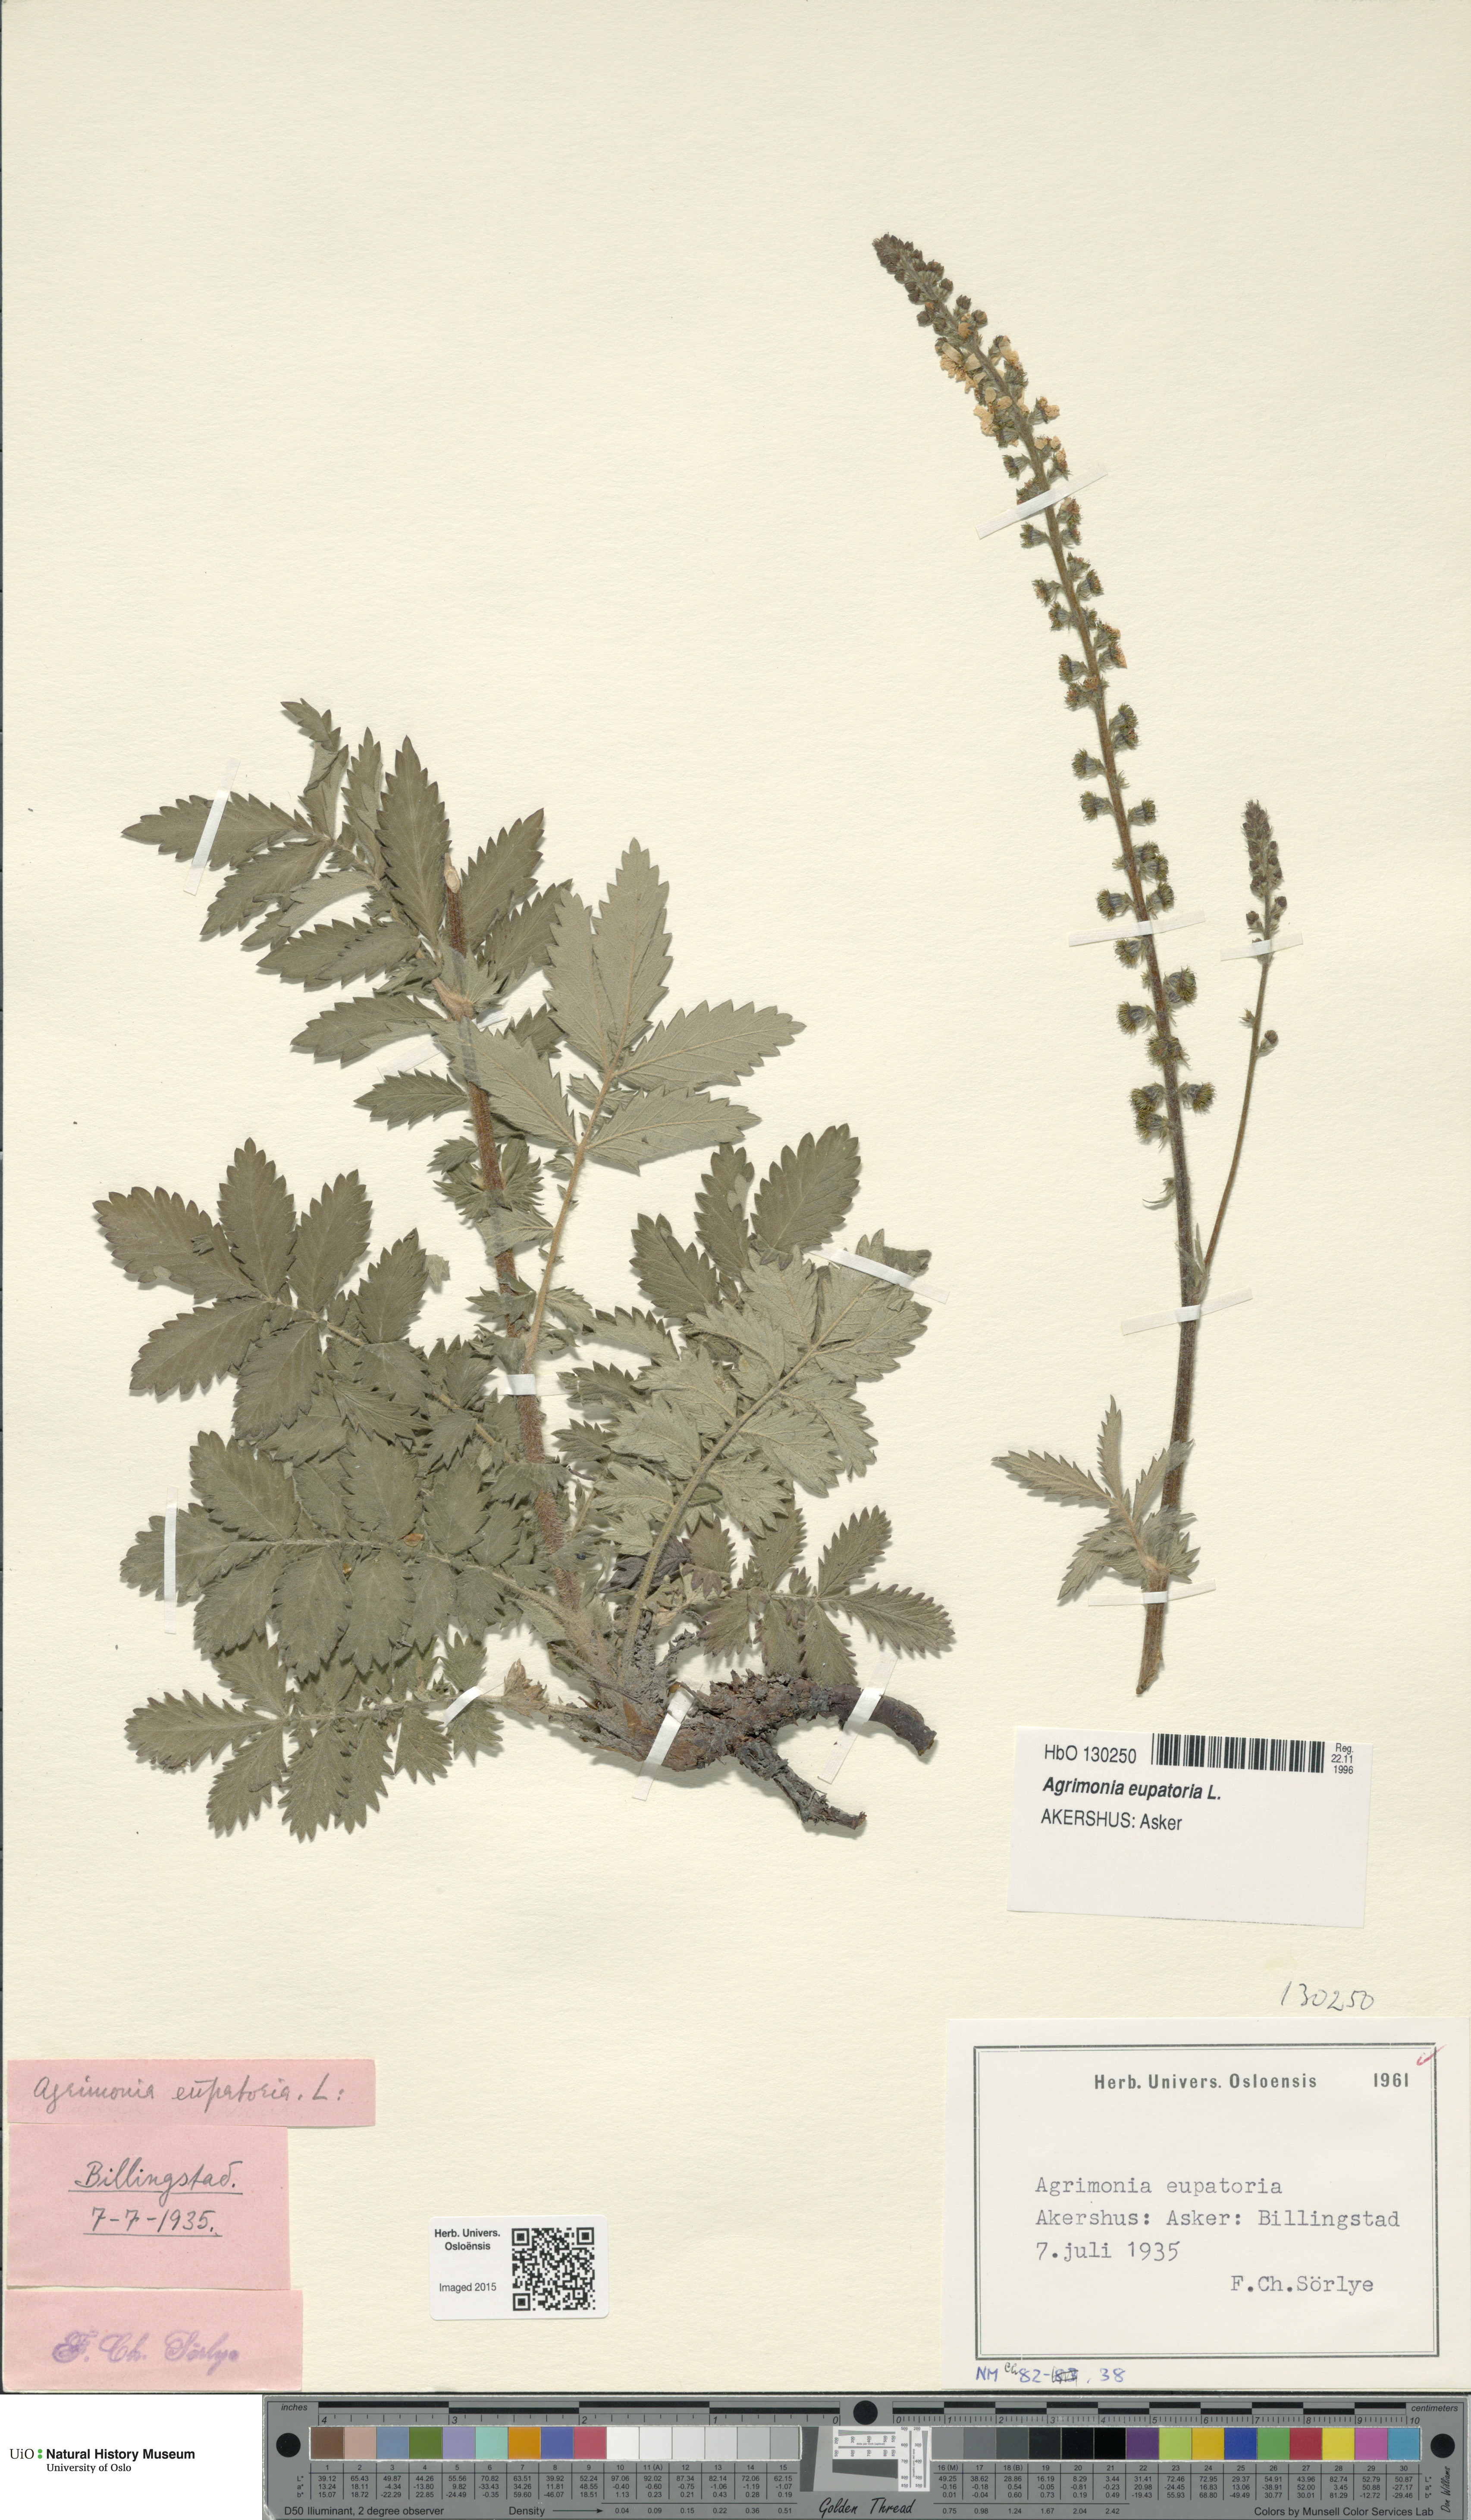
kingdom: Plantae
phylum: Tracheophyta
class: Magnoliopsida
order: Rosales
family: Rosaceae
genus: Agrimonia
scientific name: Agrimonia eupatoria
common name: Agrimony
